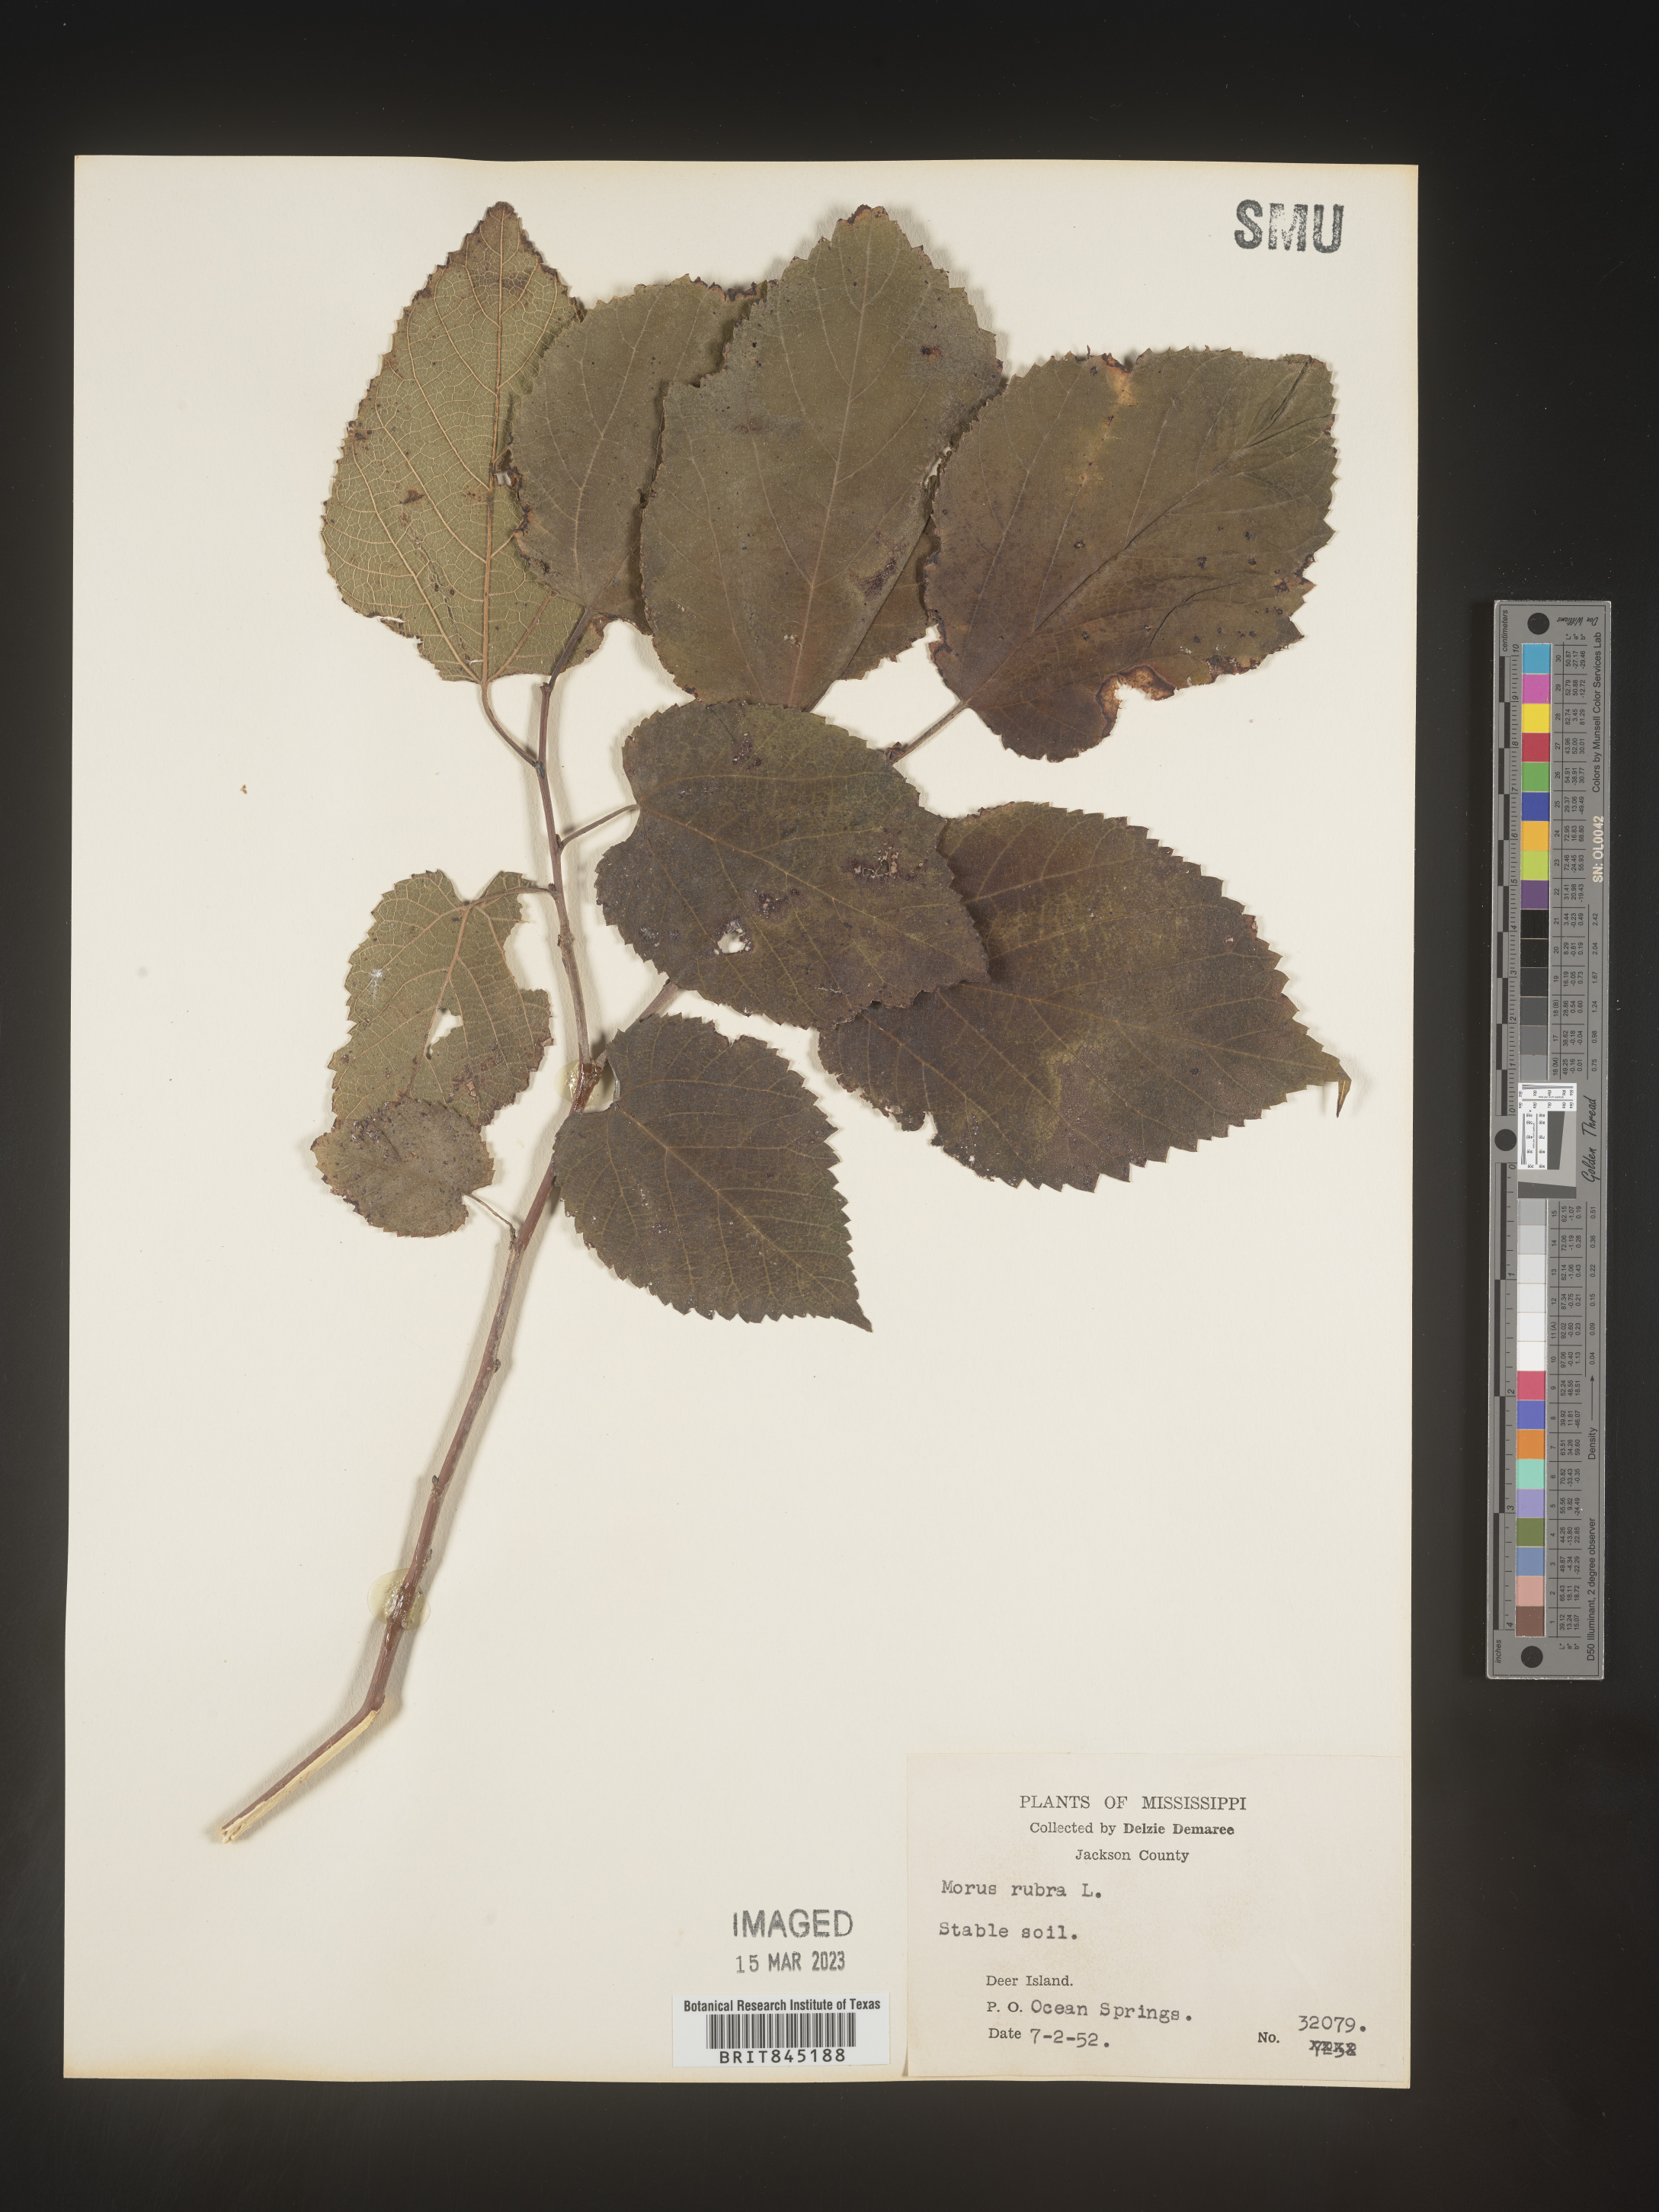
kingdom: Plantae
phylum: Tracheophyta
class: Magnoliopsida
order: Rosales
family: Moraceae
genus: Morus
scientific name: Morus rubra
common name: Red mulberry
